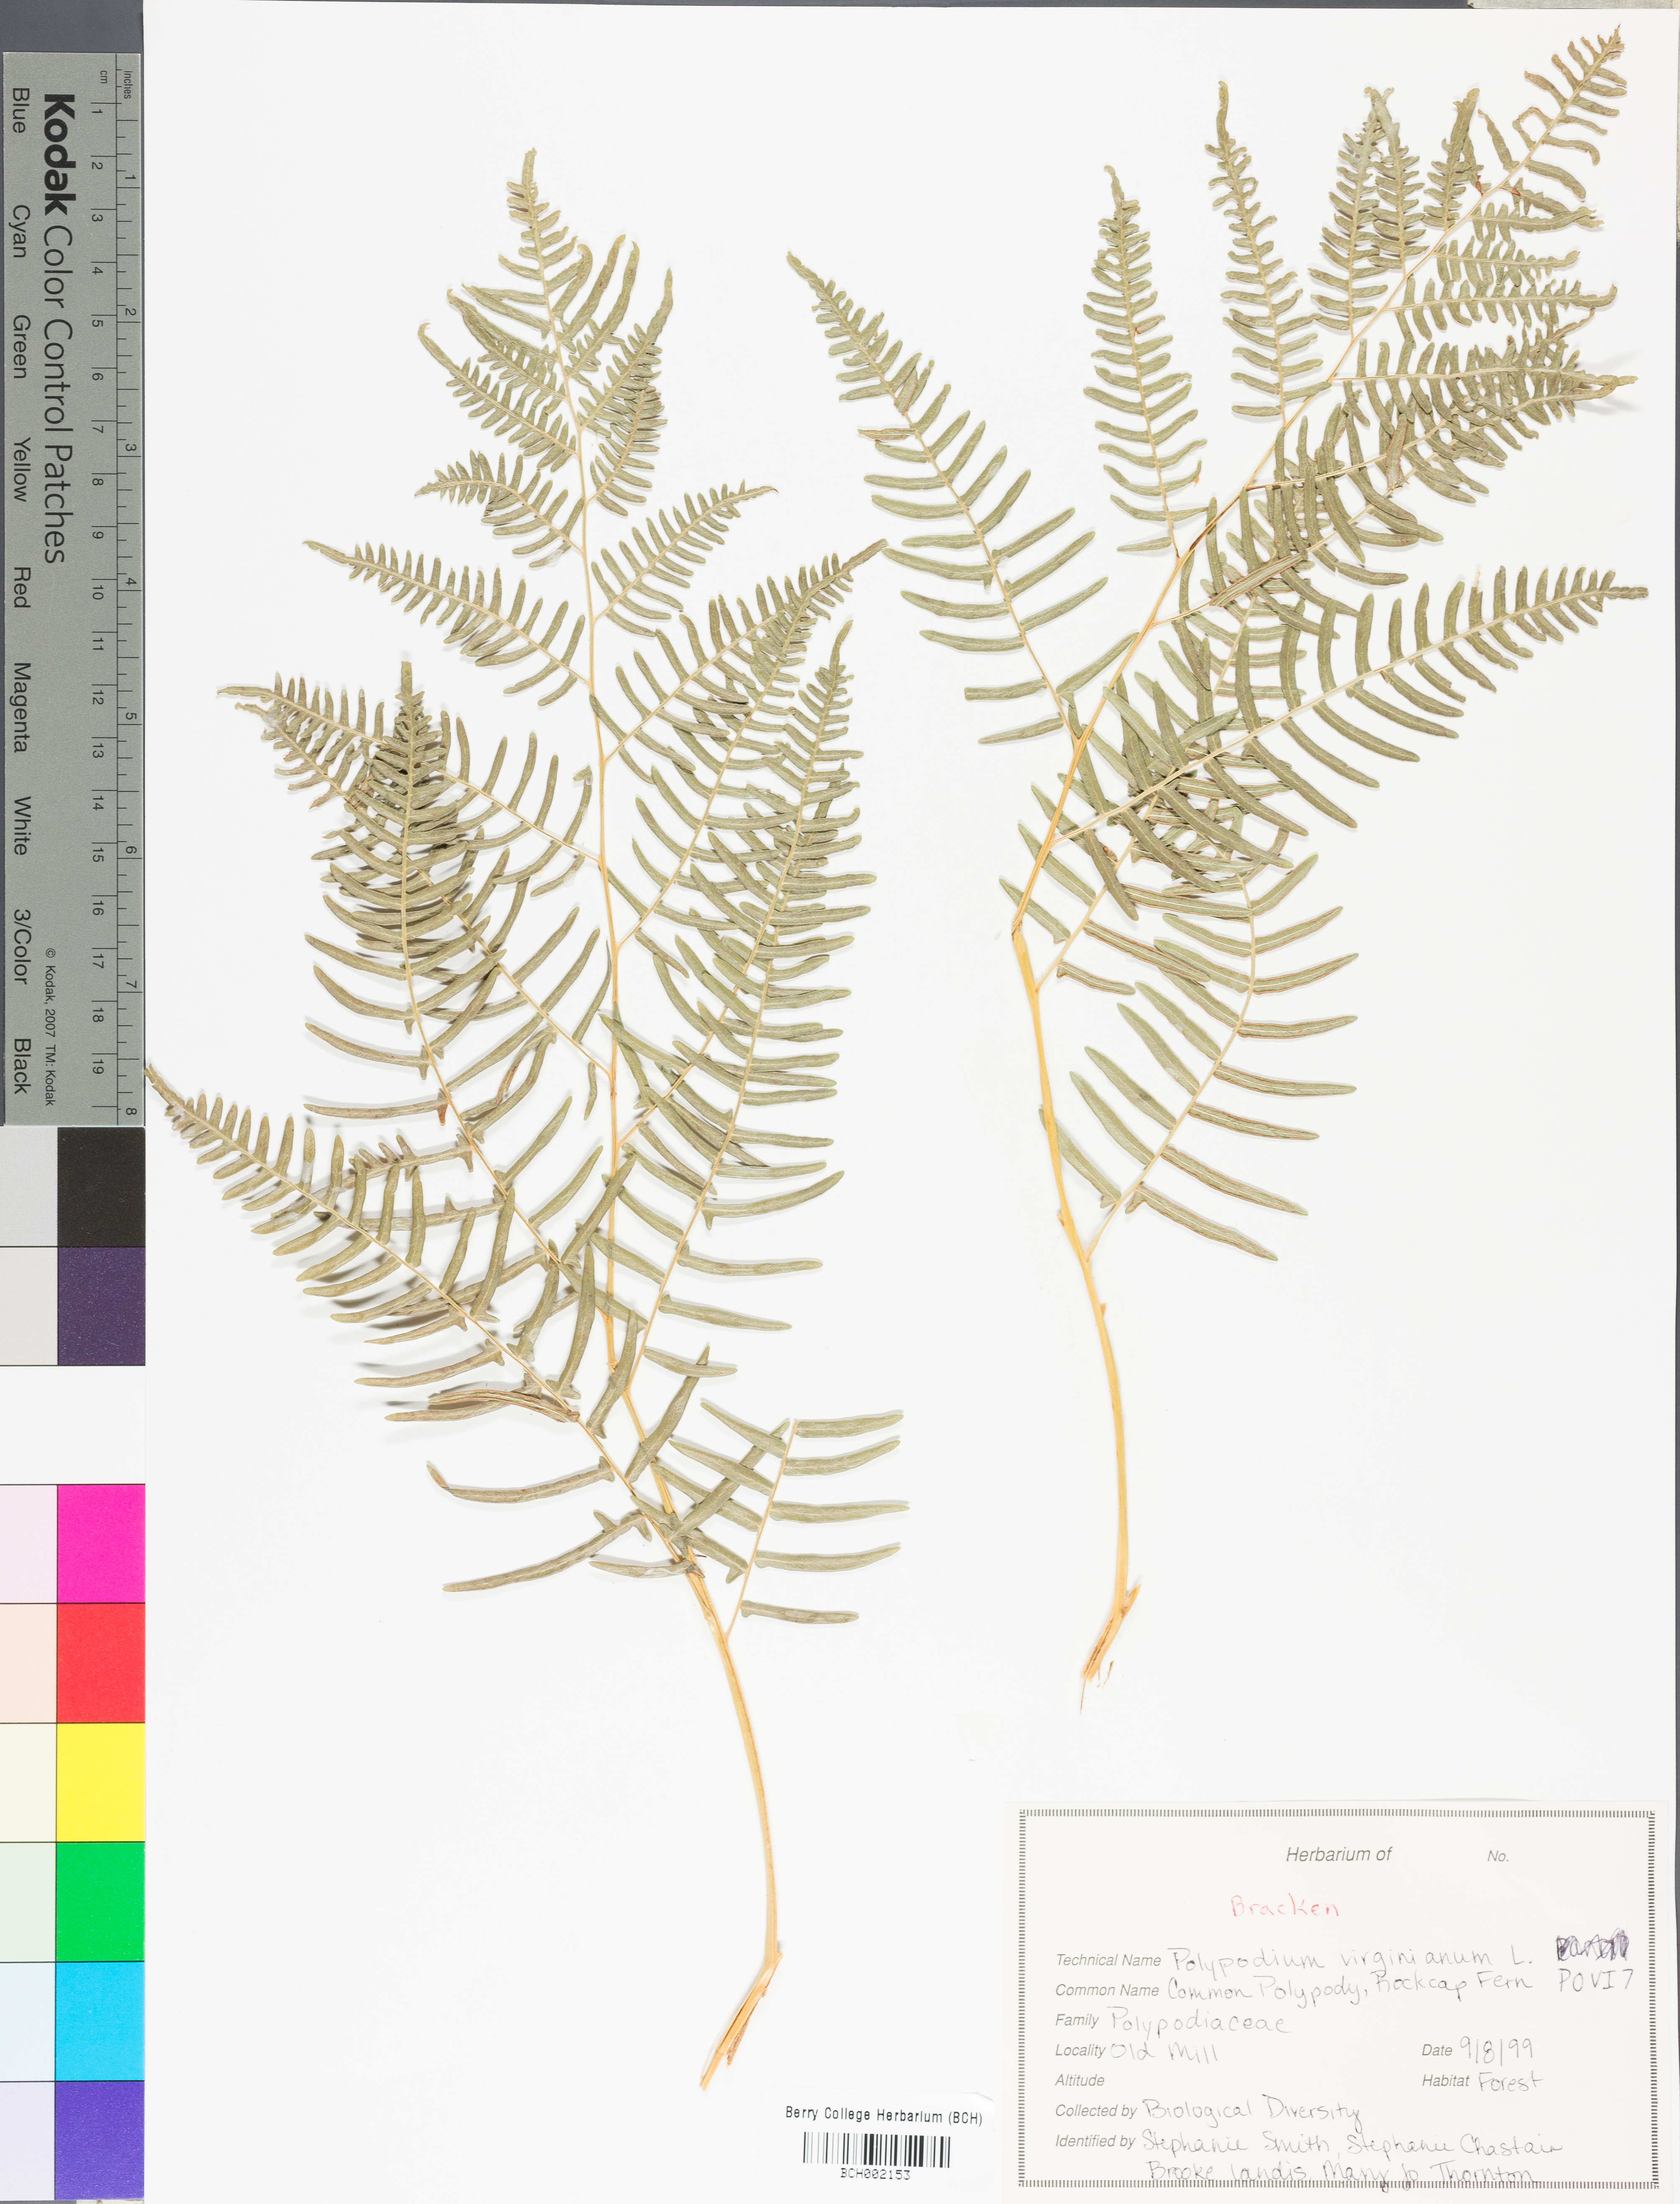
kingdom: Plantae
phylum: Tracheophyta
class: Polypodiopsida
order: Polypodiales
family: Polypodiaceae
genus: Polypodium
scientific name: Polypodium virginianum
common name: American wall fern
